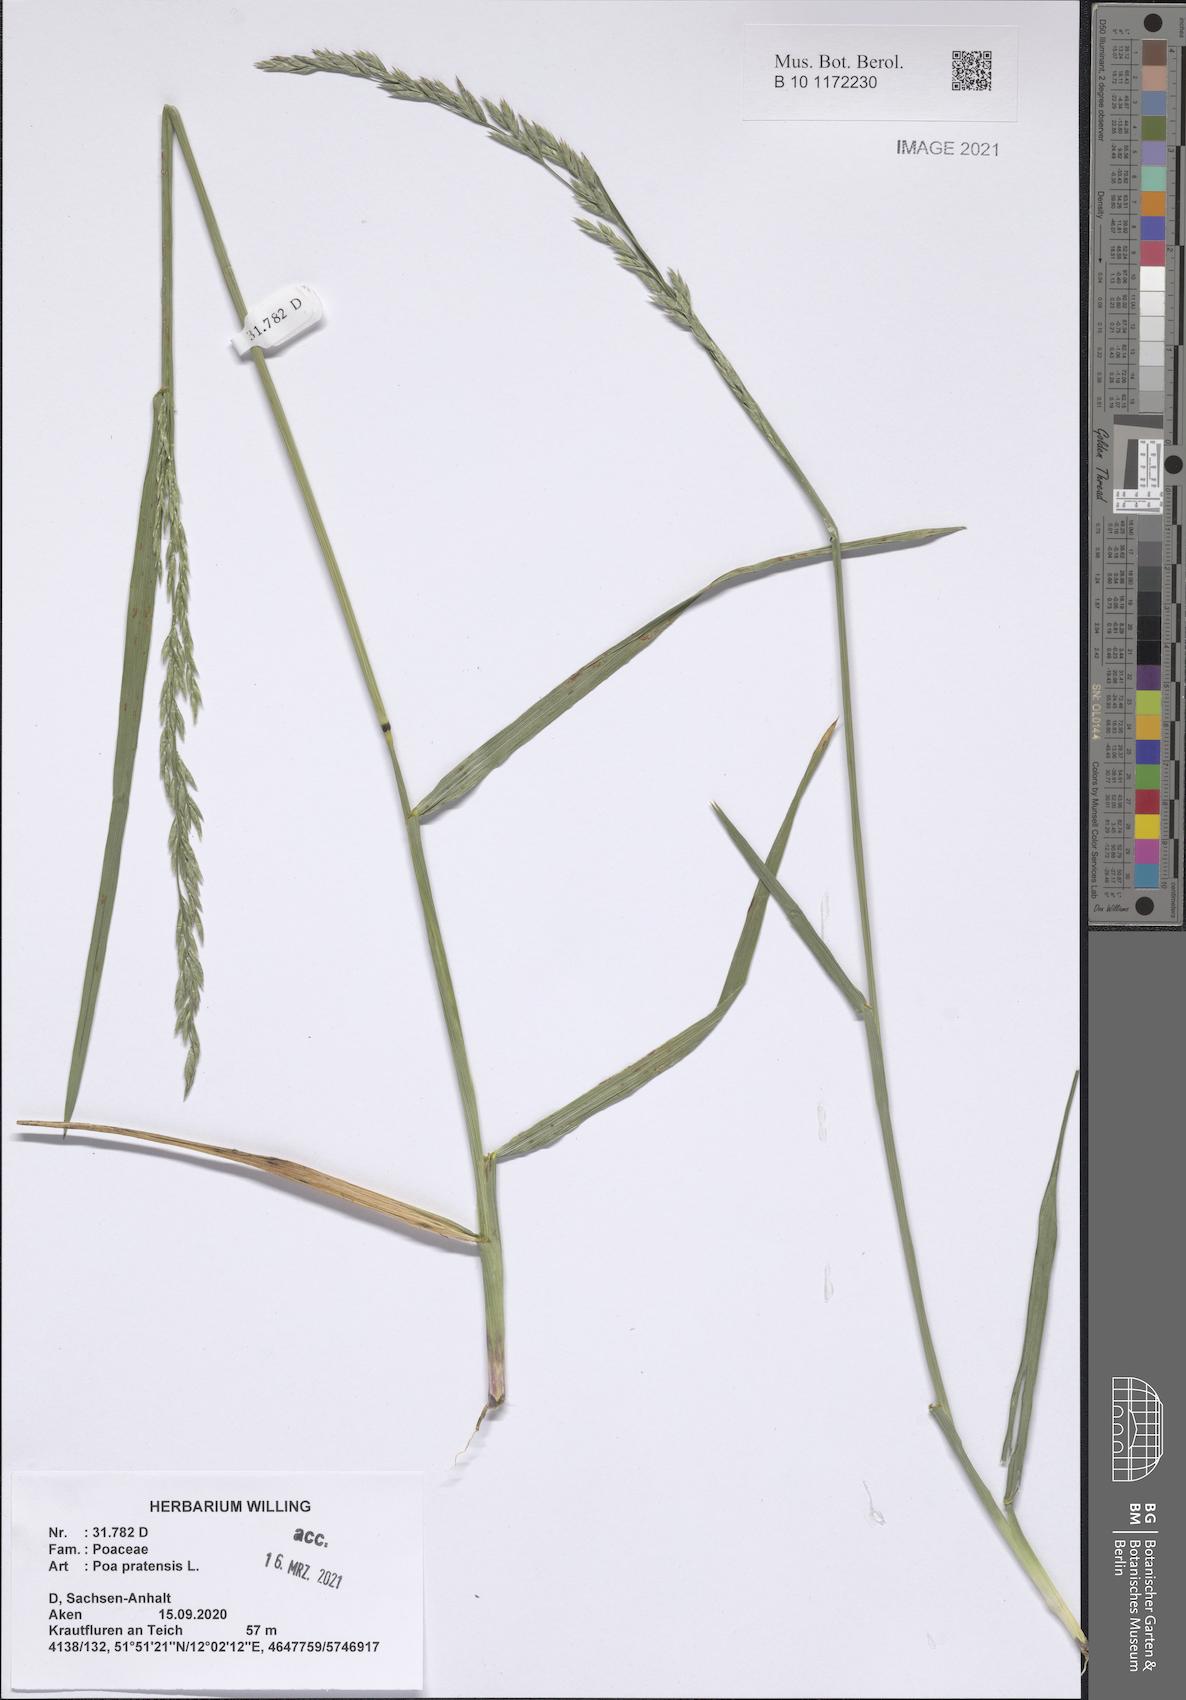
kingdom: Plantae
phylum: Tracheophyta
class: Liliopsida
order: Poales
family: Poaceae
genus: Poa
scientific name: Poa pratensis
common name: Kentucky bluegrass
